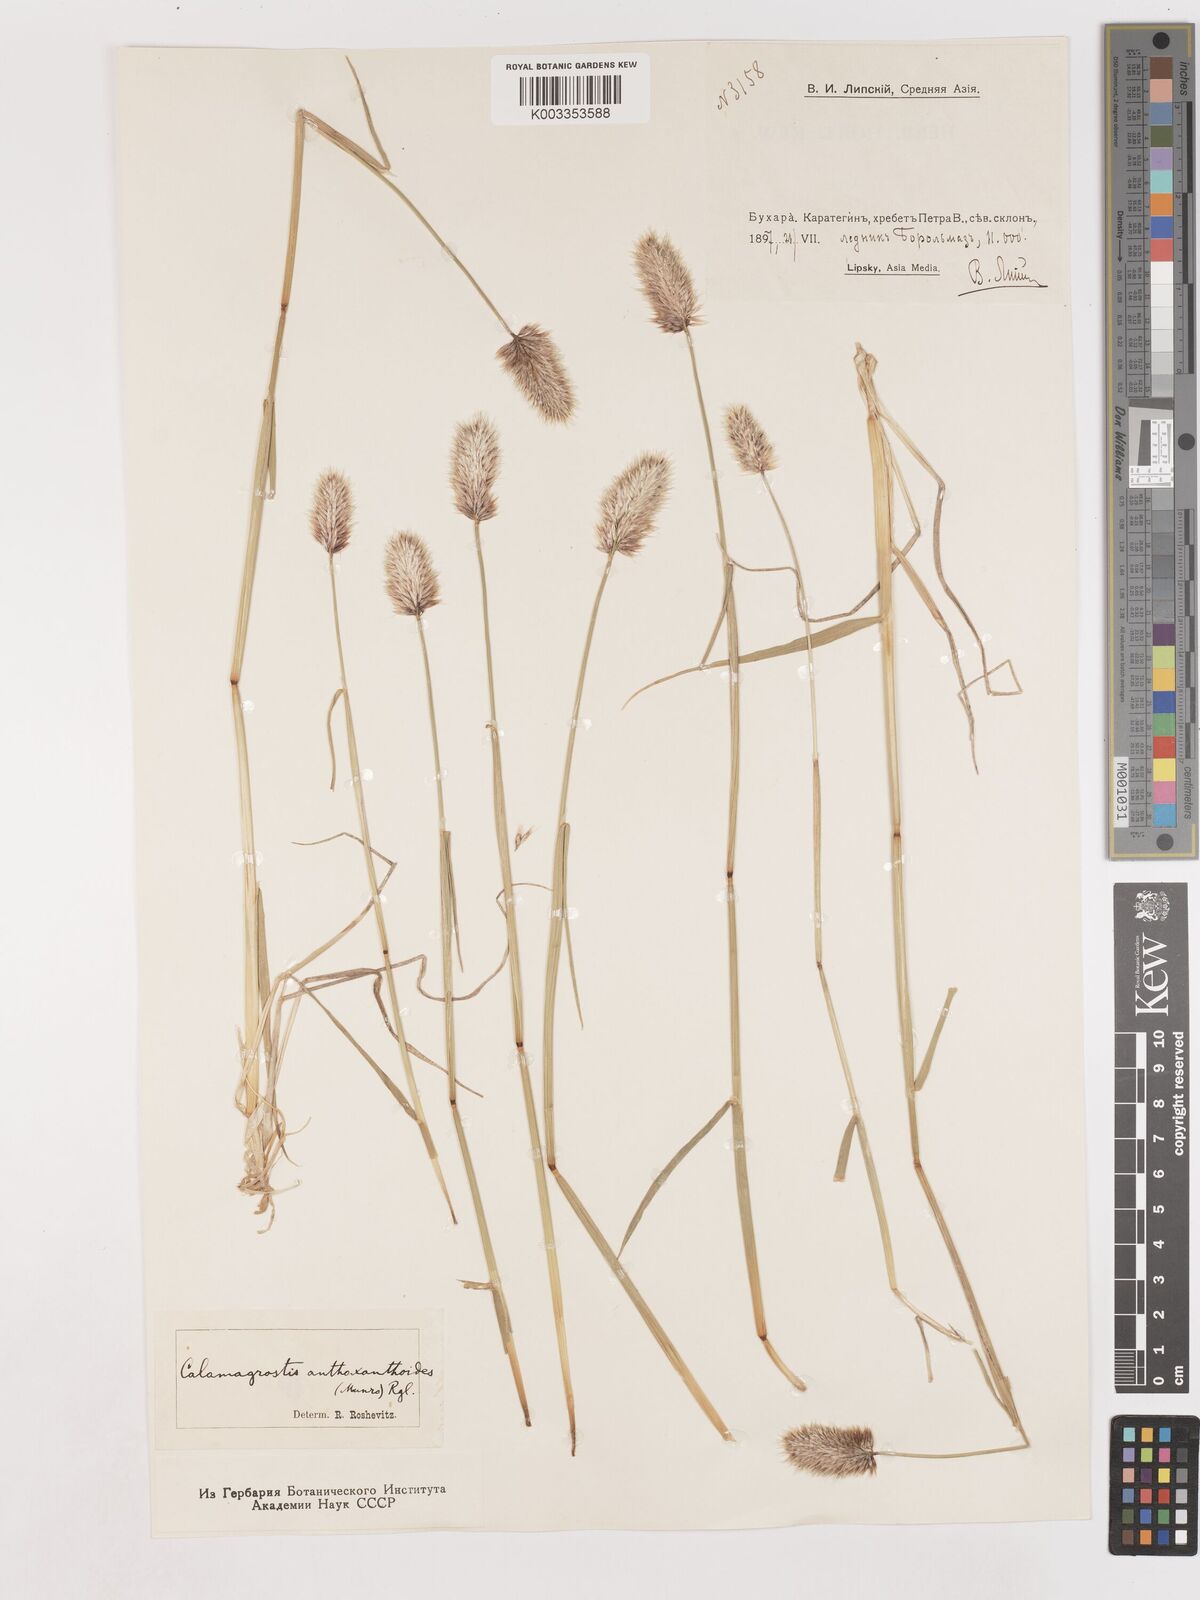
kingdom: Plantae
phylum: Tracheophyta
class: Liliopsida
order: Poales
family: Poaceae
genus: Calamagrostis
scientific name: Calamagrostis anthoxanthoides
